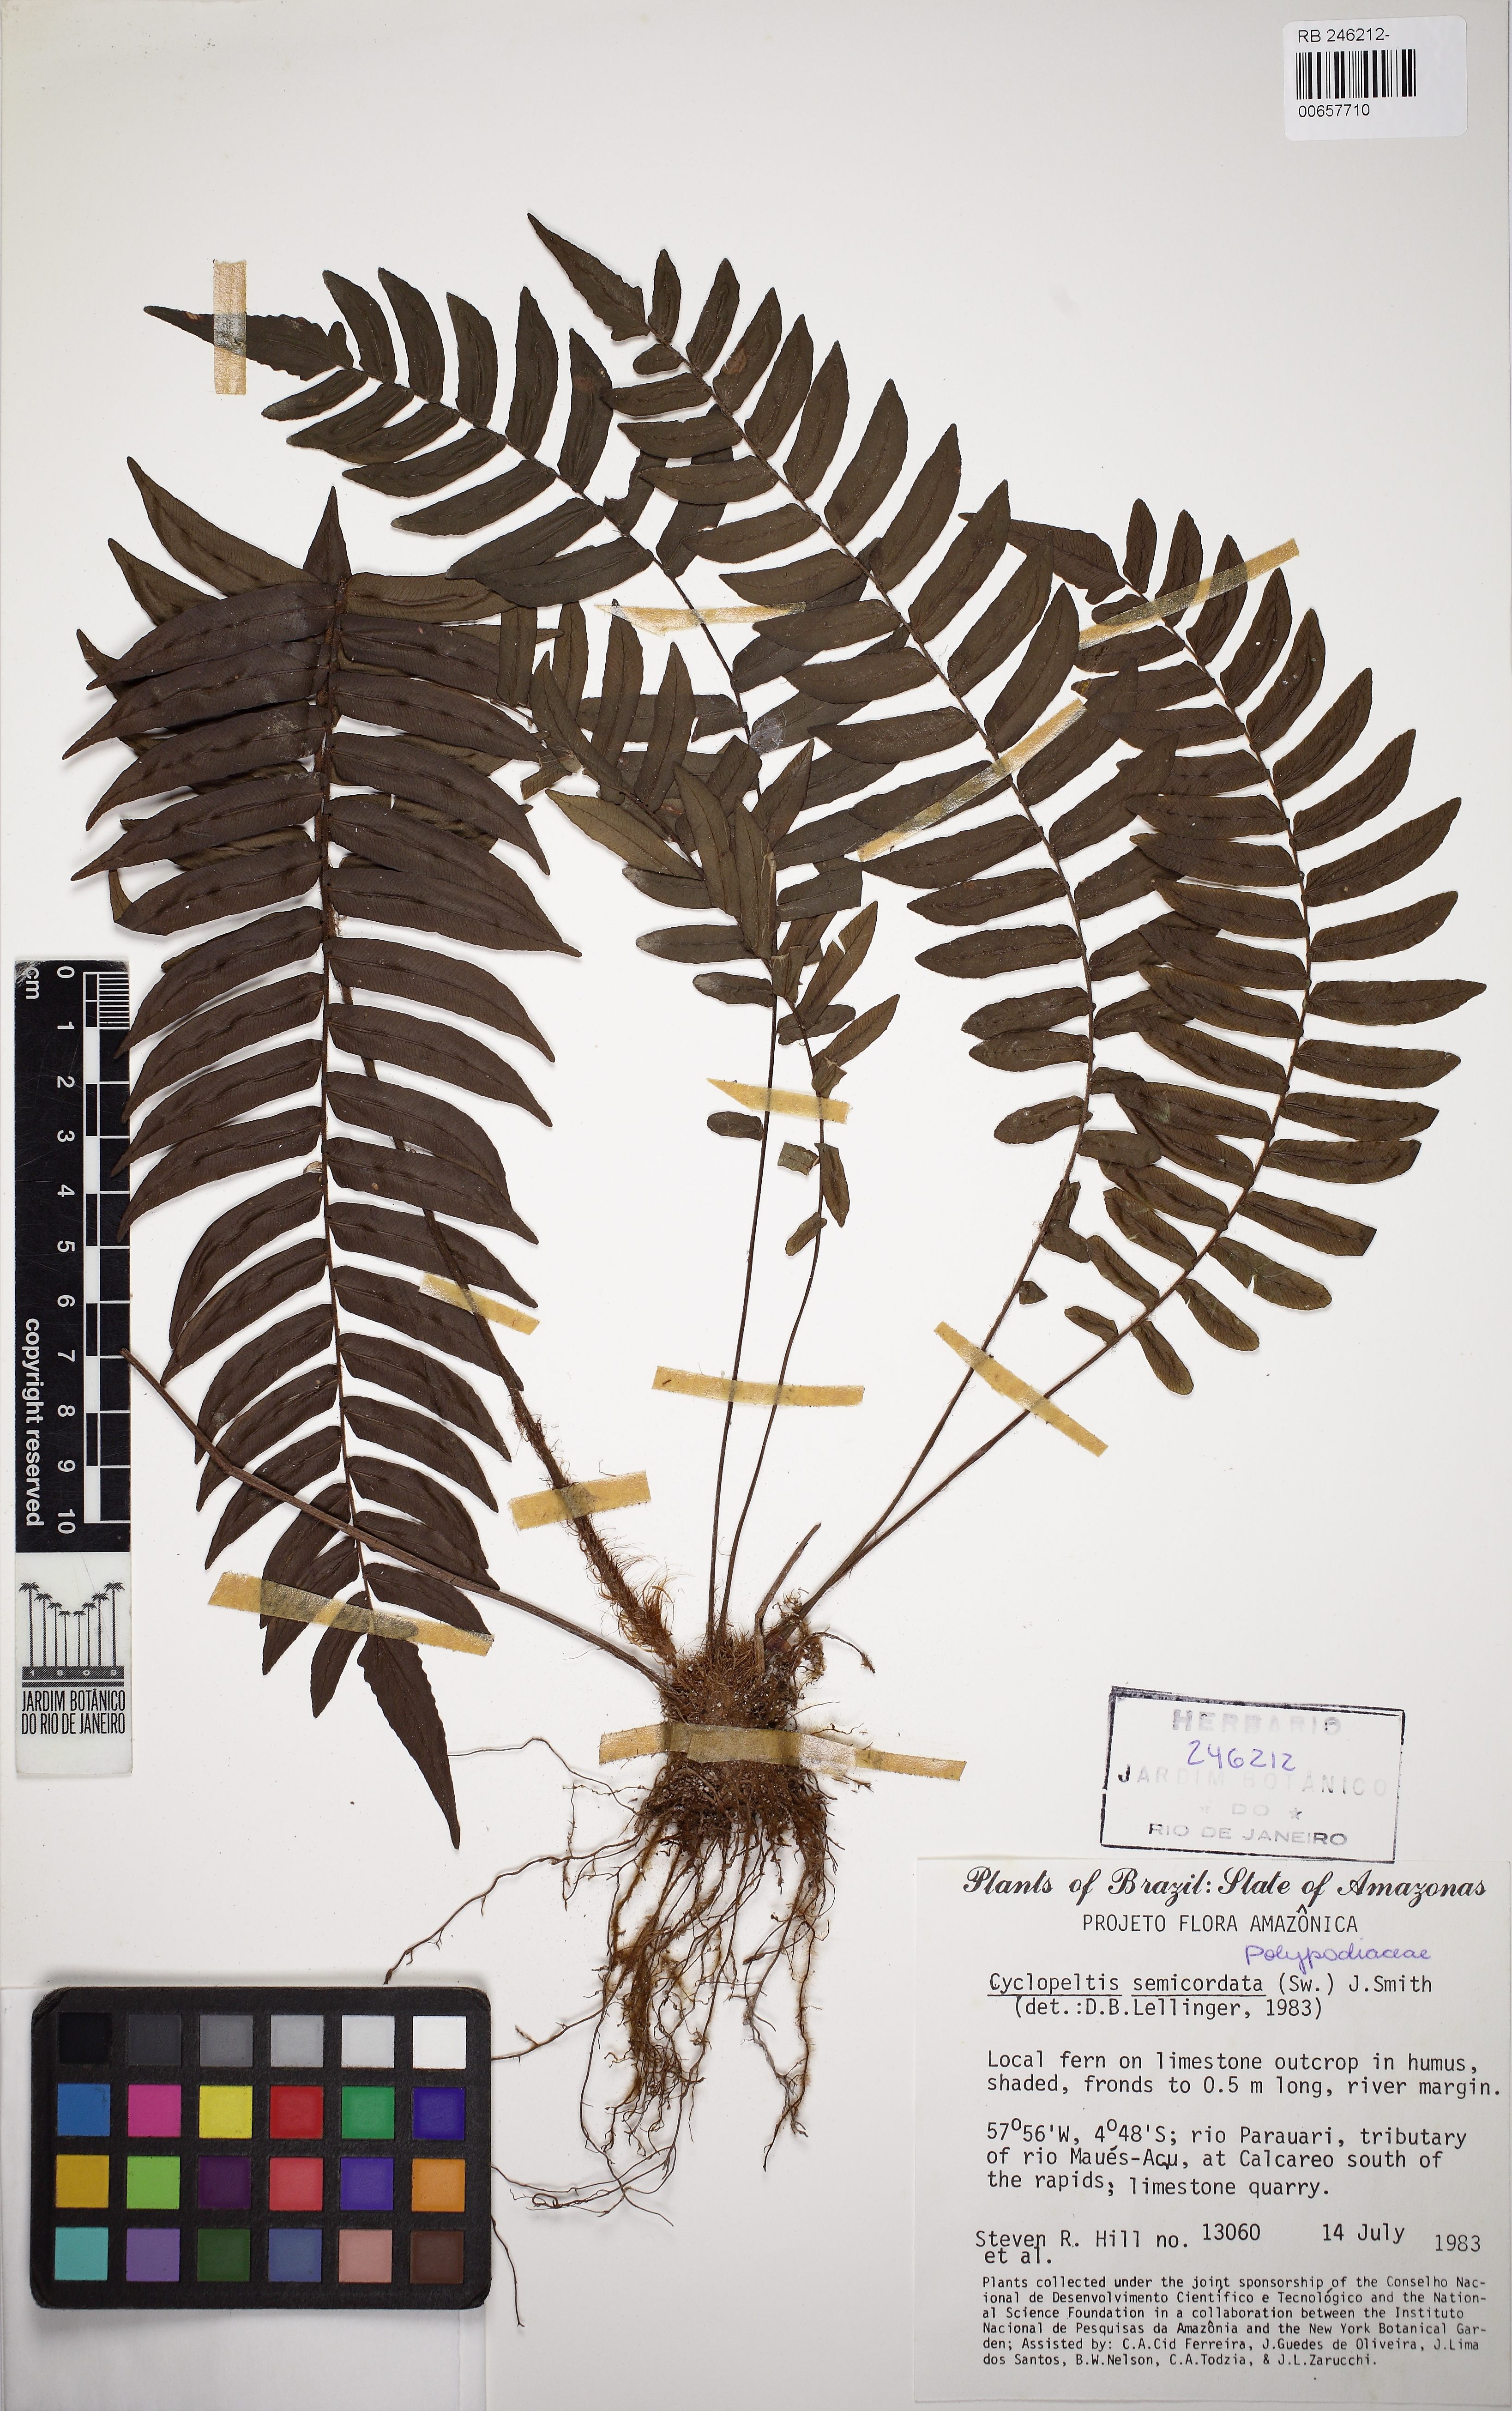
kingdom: Plantae
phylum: Tracheophyta
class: Polypodiopsida
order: Polypodiales
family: Lomariopsidaceae
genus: Cyclopeltis
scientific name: Cyclopeltis semicordata
